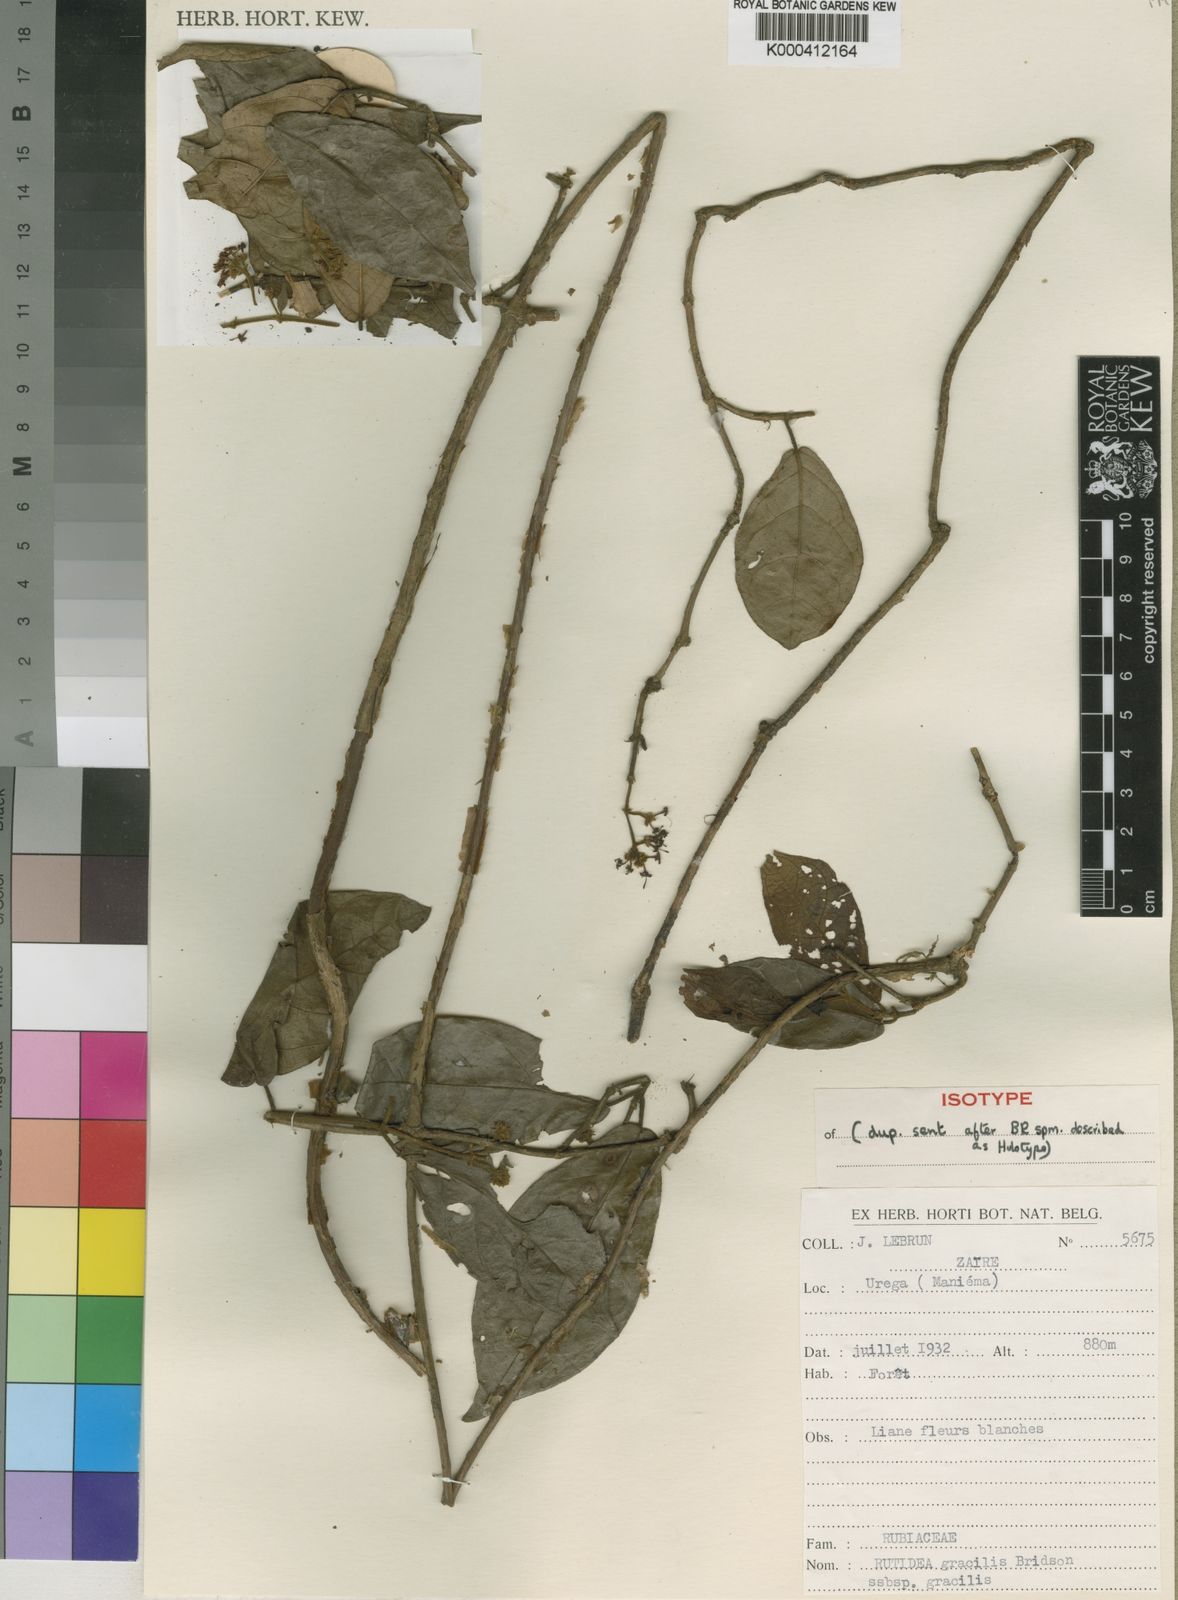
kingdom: Plantae
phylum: Tracheophyta
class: Magnoliopsida
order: Gentianales
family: Rubiaceae
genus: Rutidea
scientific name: Rutidea gracilis
